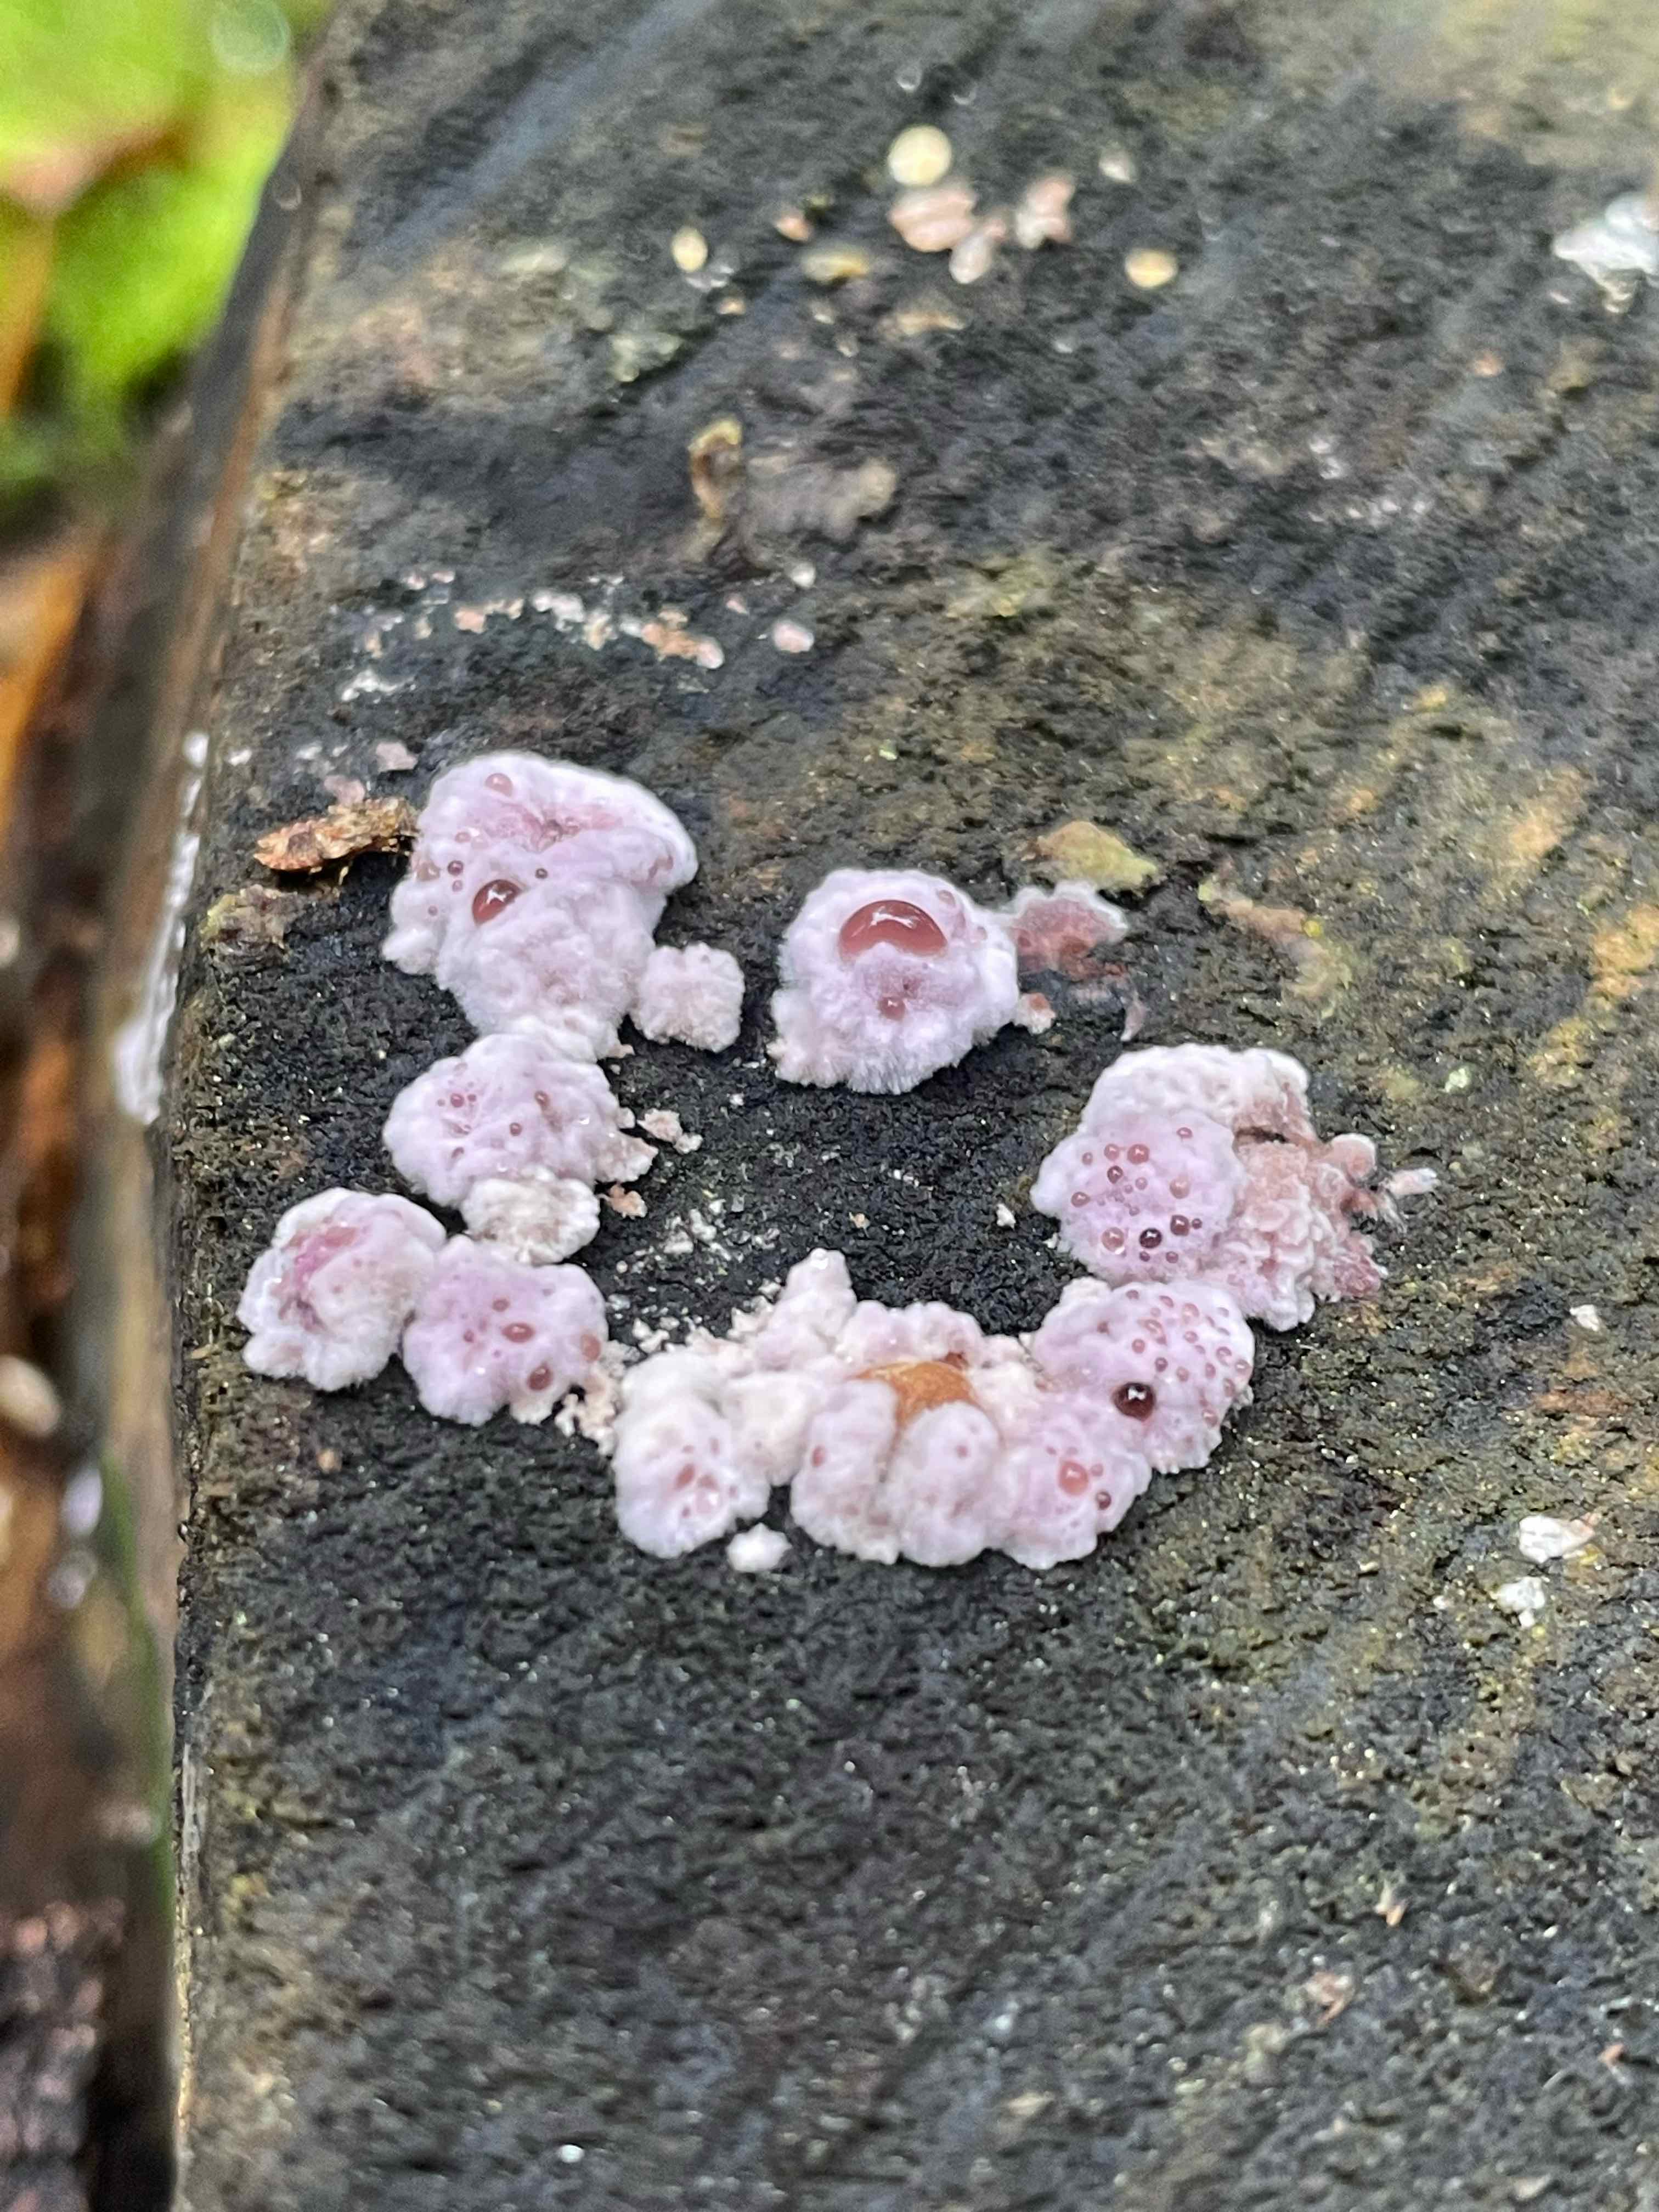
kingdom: Fungi
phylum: Basidiomycota
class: Agaricomycetes
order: Agaricales
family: Cyphellaceae
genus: Chondrostereum
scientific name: Chondrostereum purpureum
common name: purpurlædersvamp
